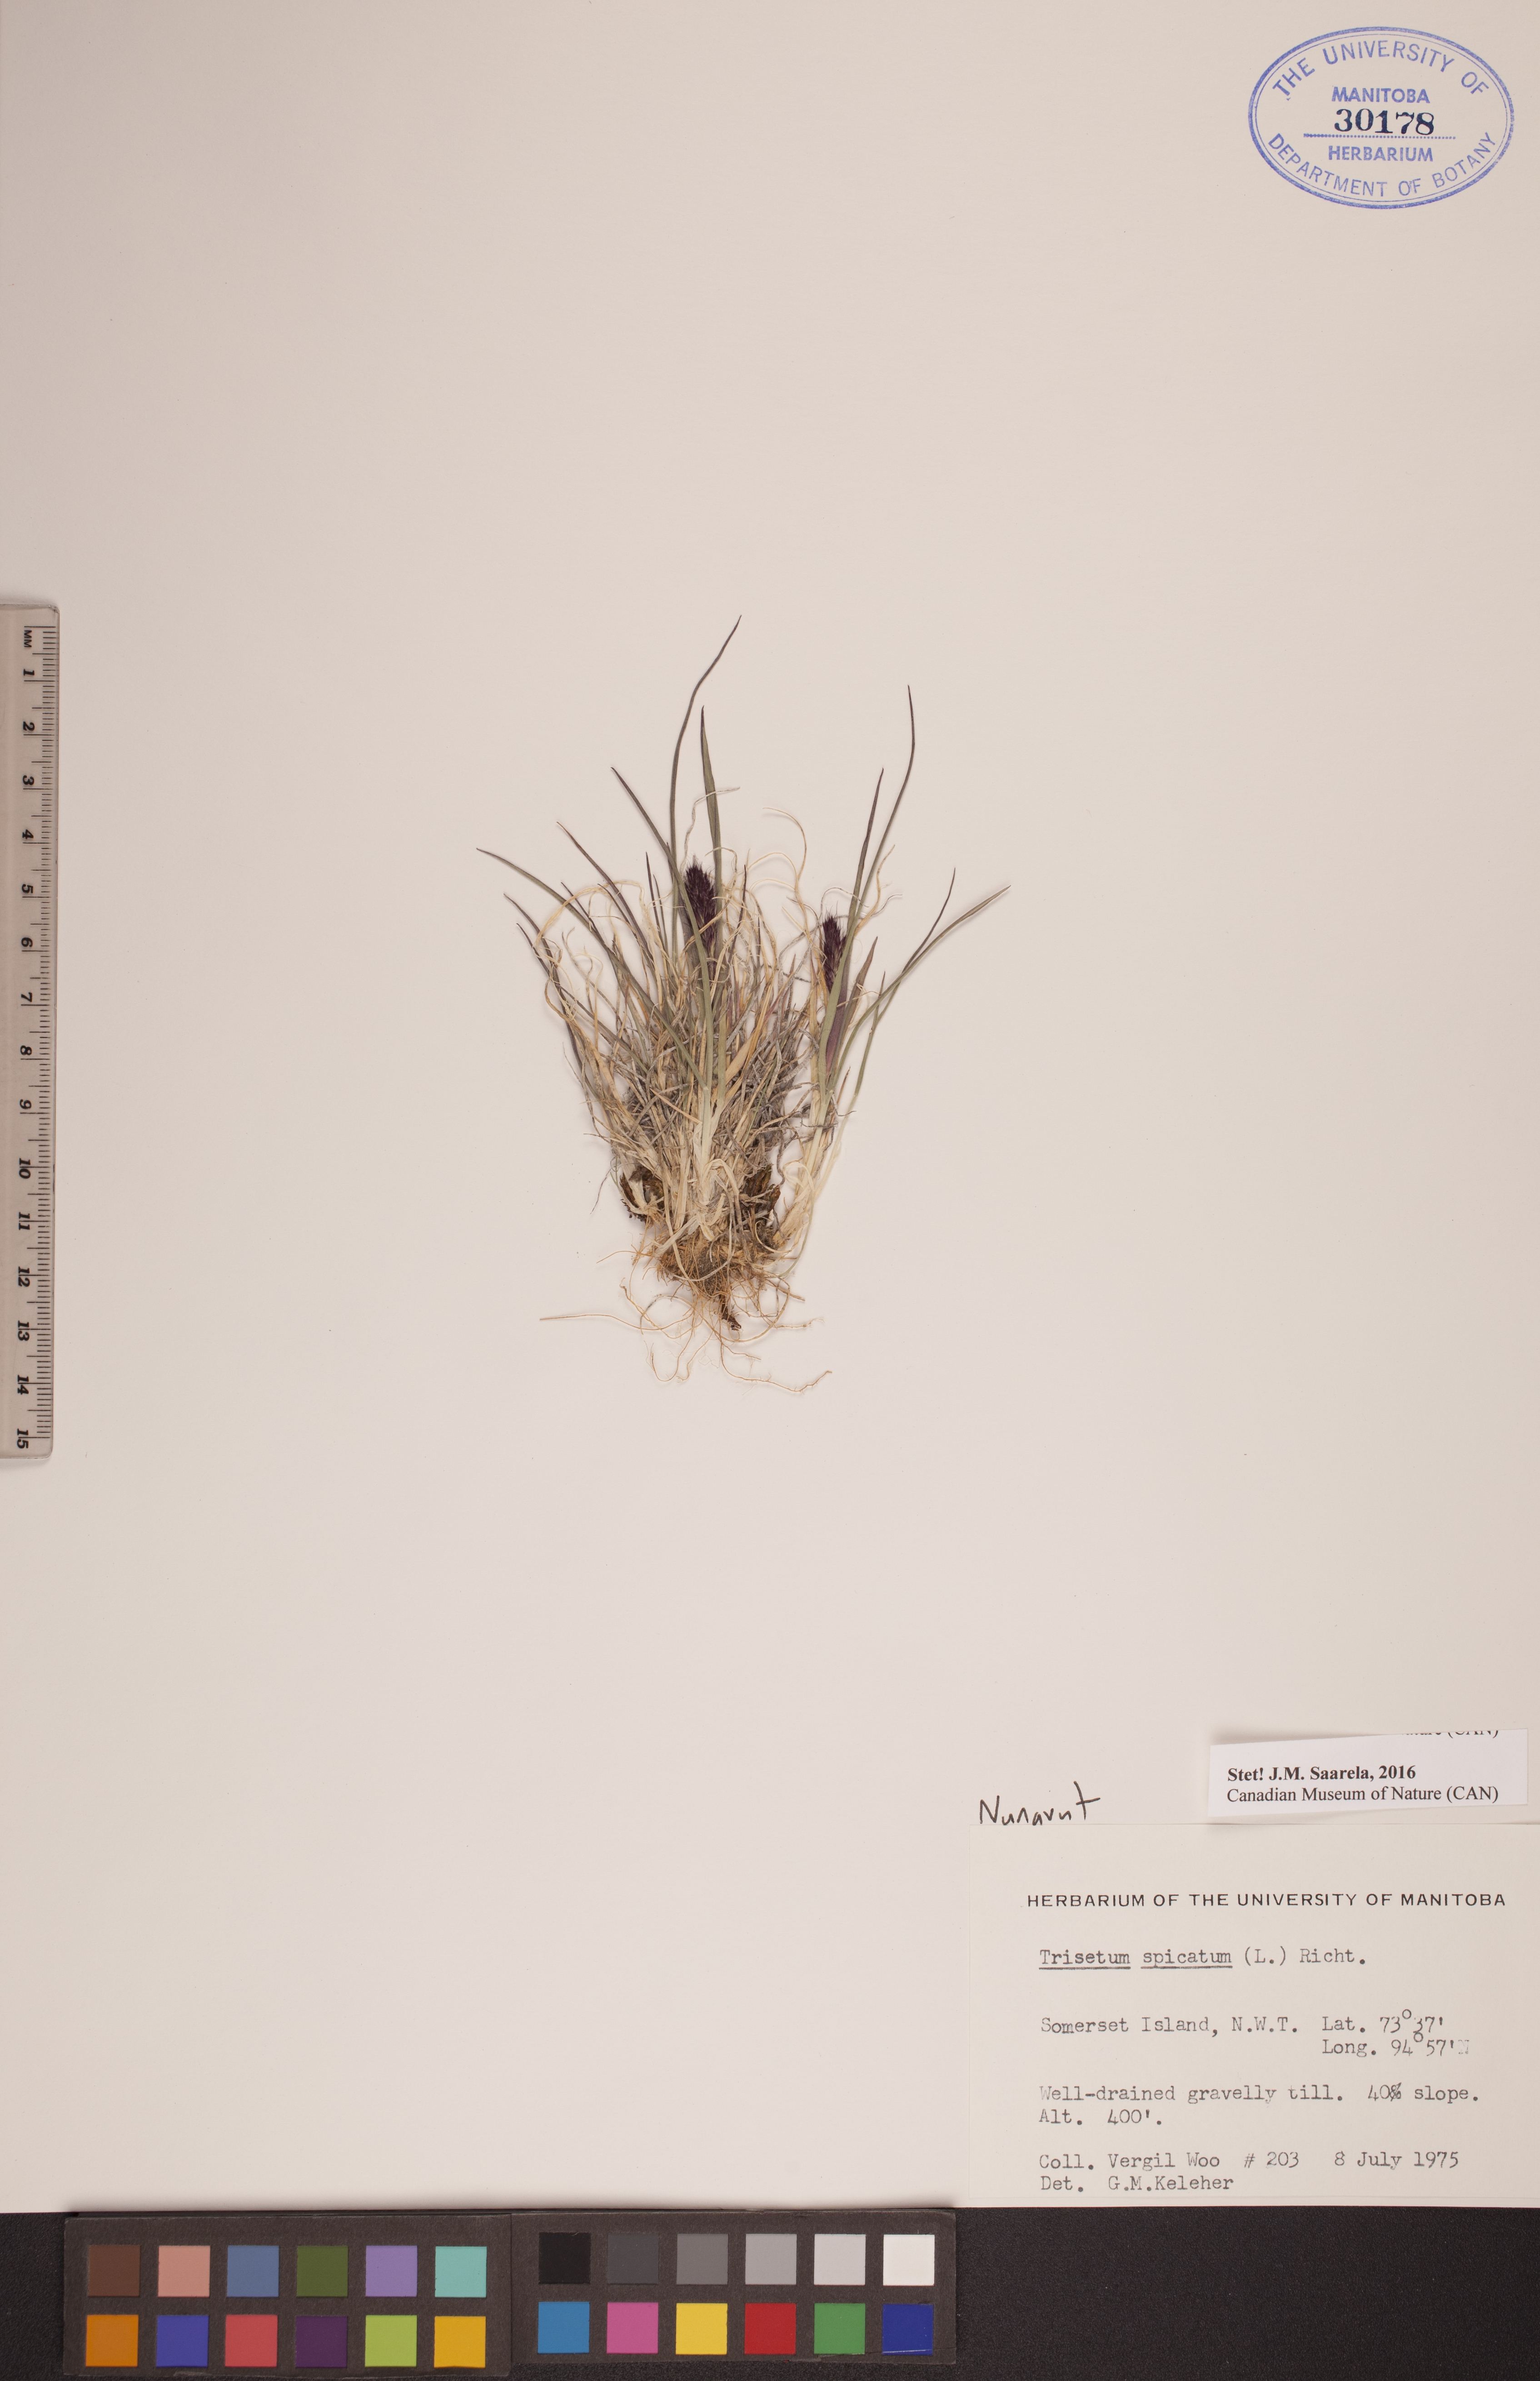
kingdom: Plantae
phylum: Tracheophyta
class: Liliopsida
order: Poales
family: Poaceae
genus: Koeleria
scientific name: Koeleria spicata
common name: Mountain trisetum
